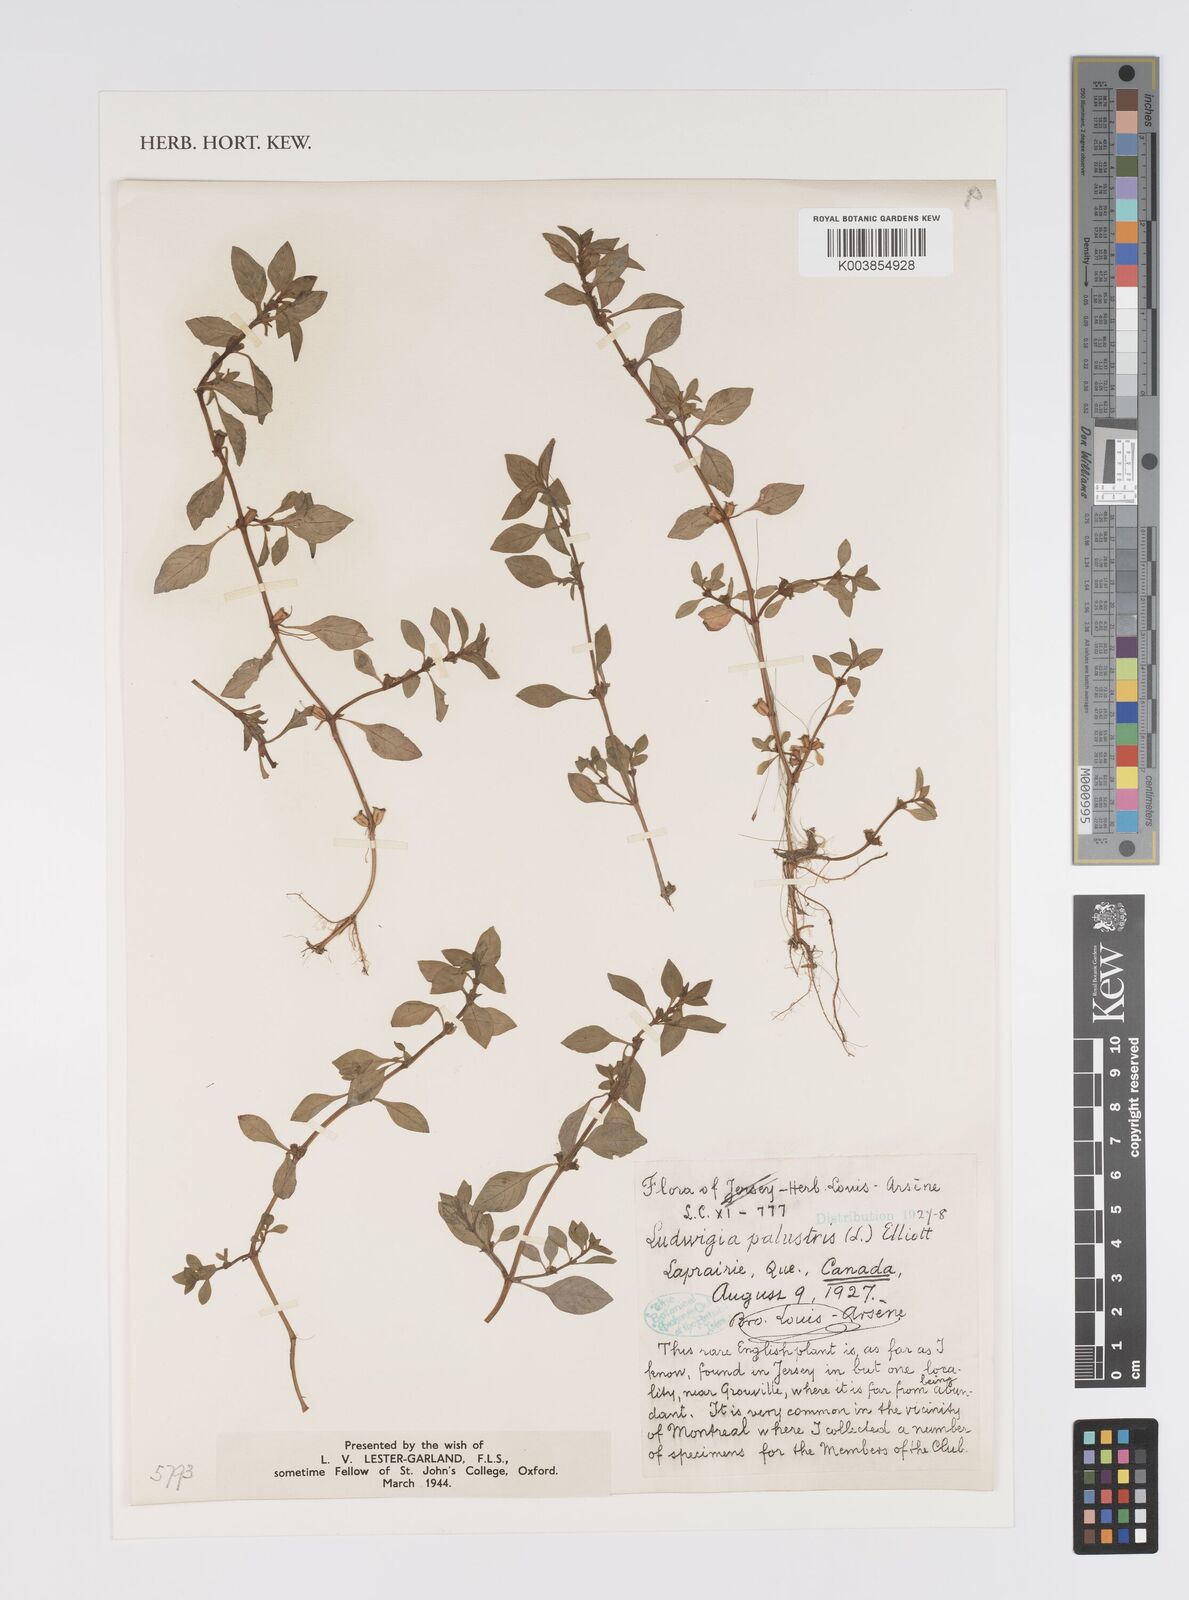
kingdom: Plantae
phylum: Tracheophyta
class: Magnoliopsida
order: Myrtales
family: Onagraceae
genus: Ludwigia
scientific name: Ludwigia palustris
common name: Hampshire-purslane
